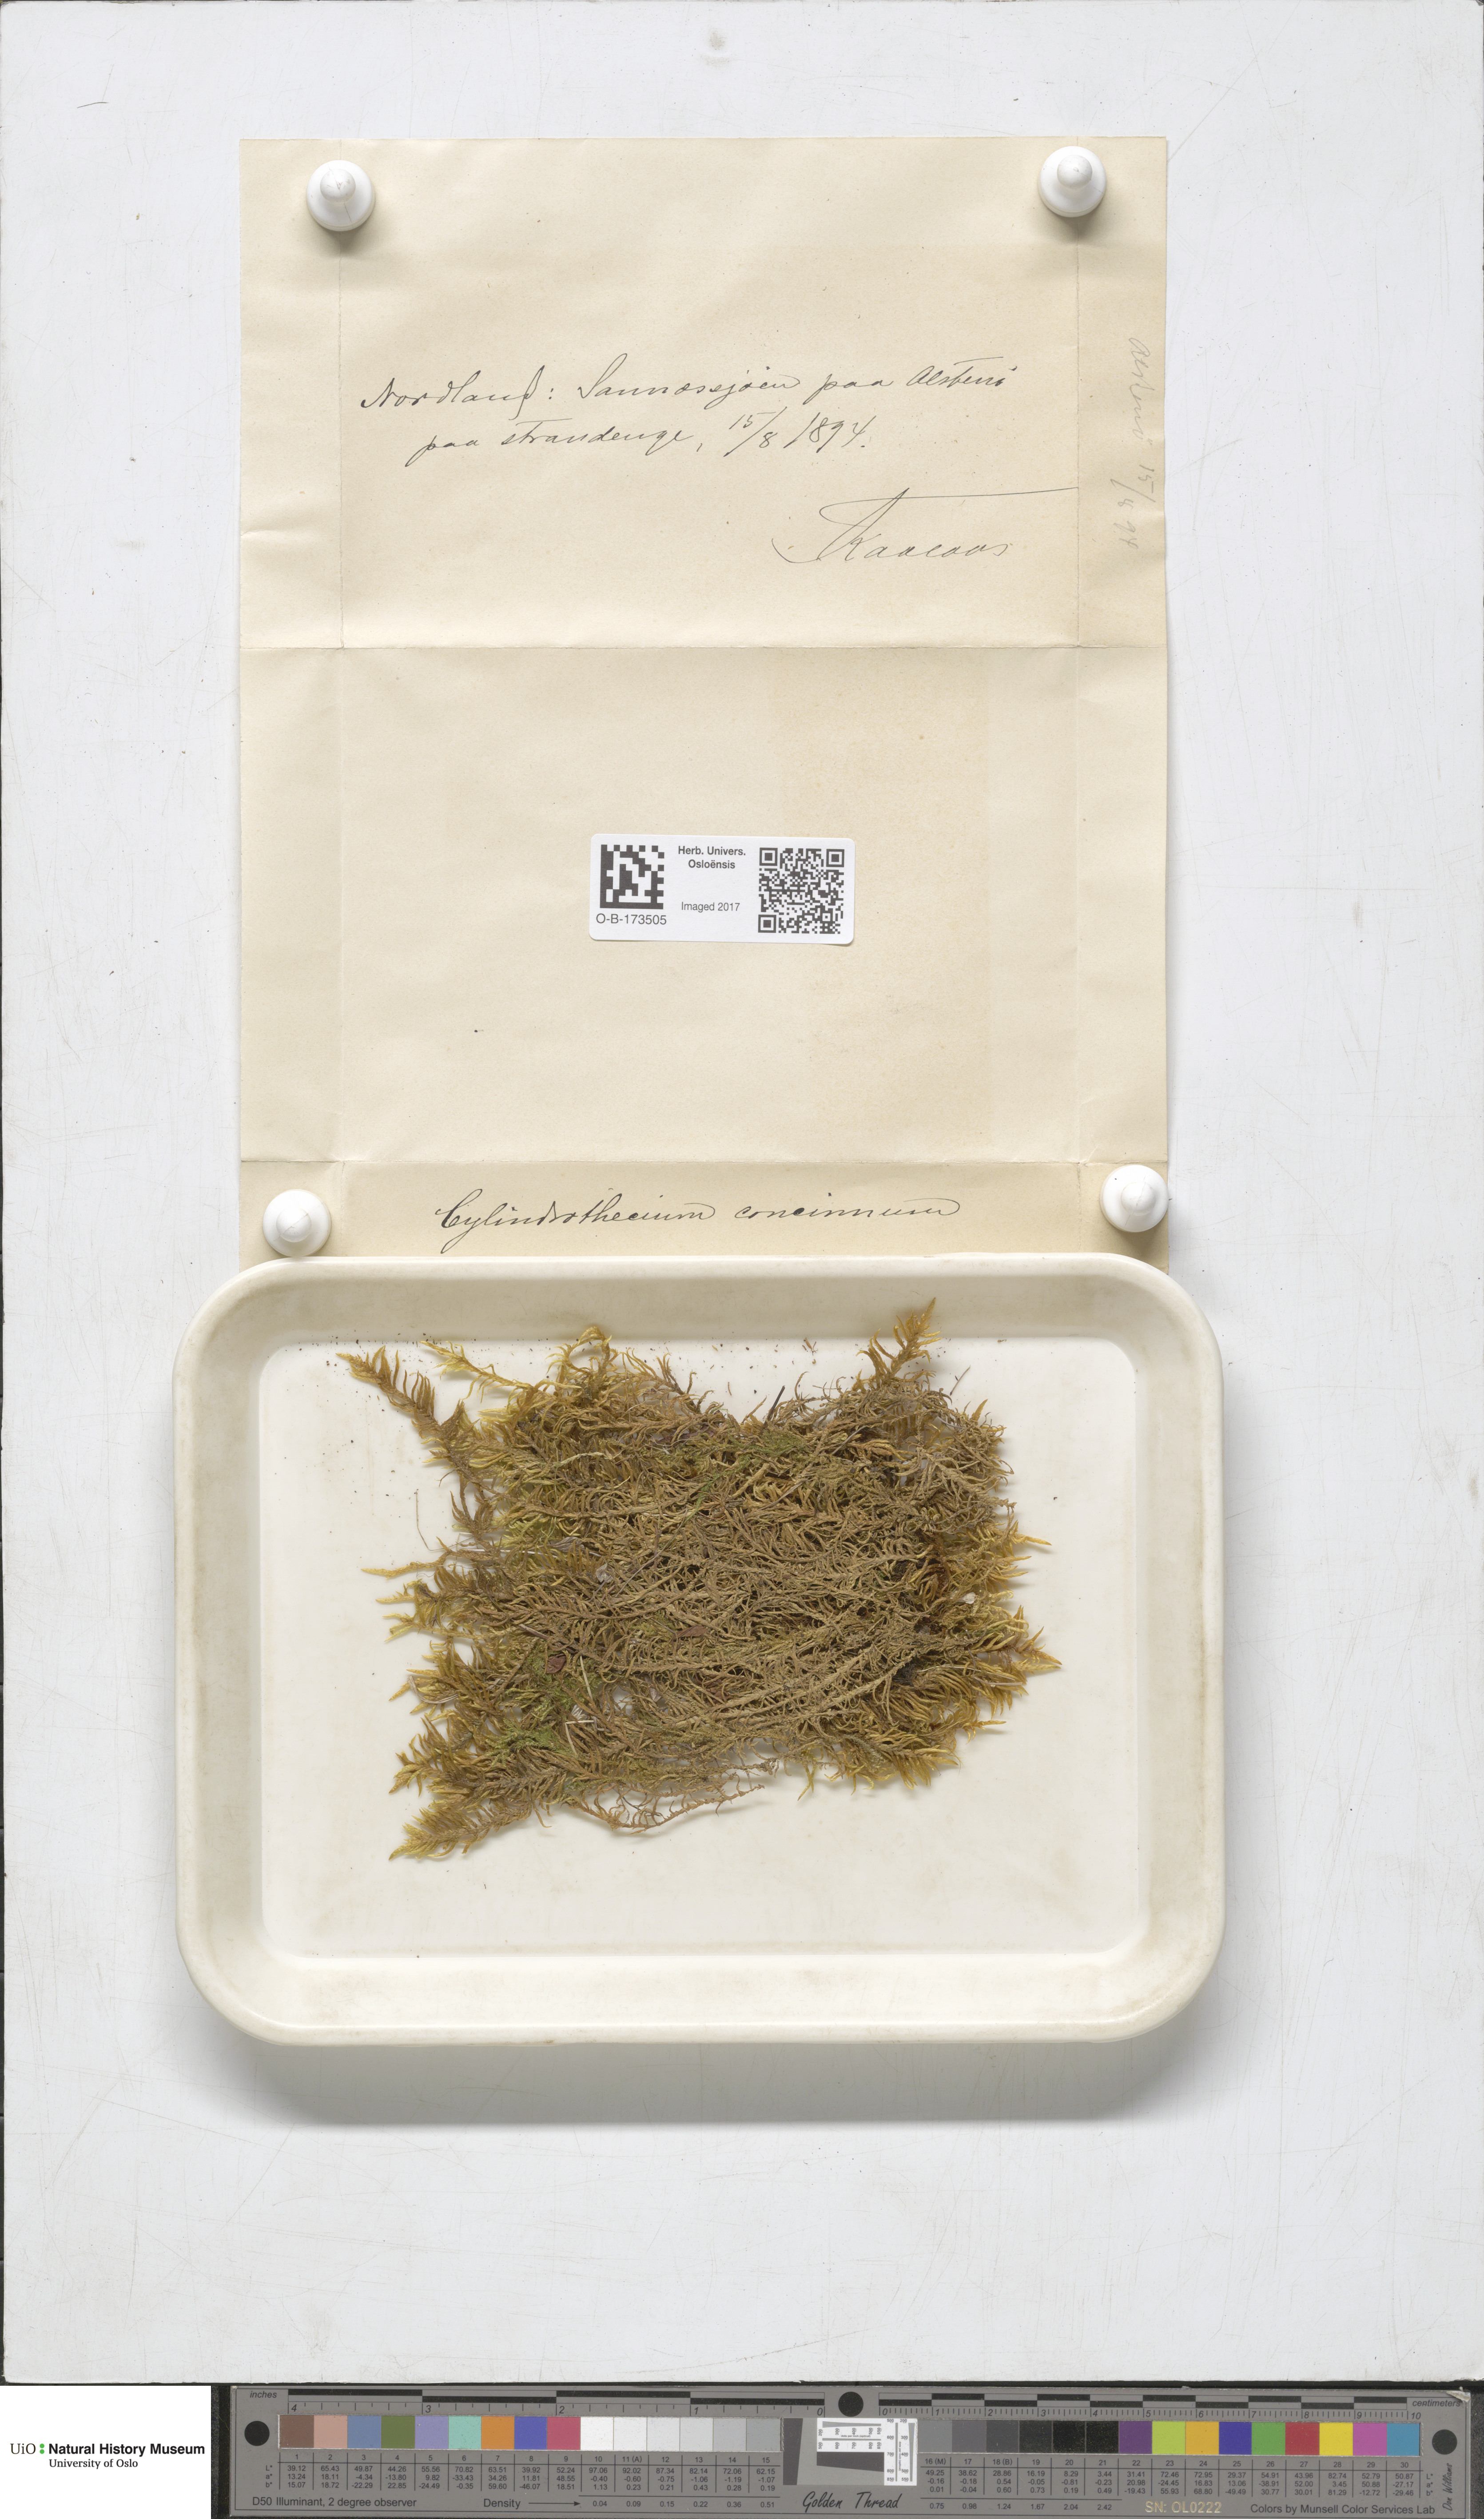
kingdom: Plantae
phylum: Bryophyta
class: Bryopsida
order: Hypnales
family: Entodontaceae
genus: Entodon
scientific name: Entodon concinnus
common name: Montagne's cylinder-moss
